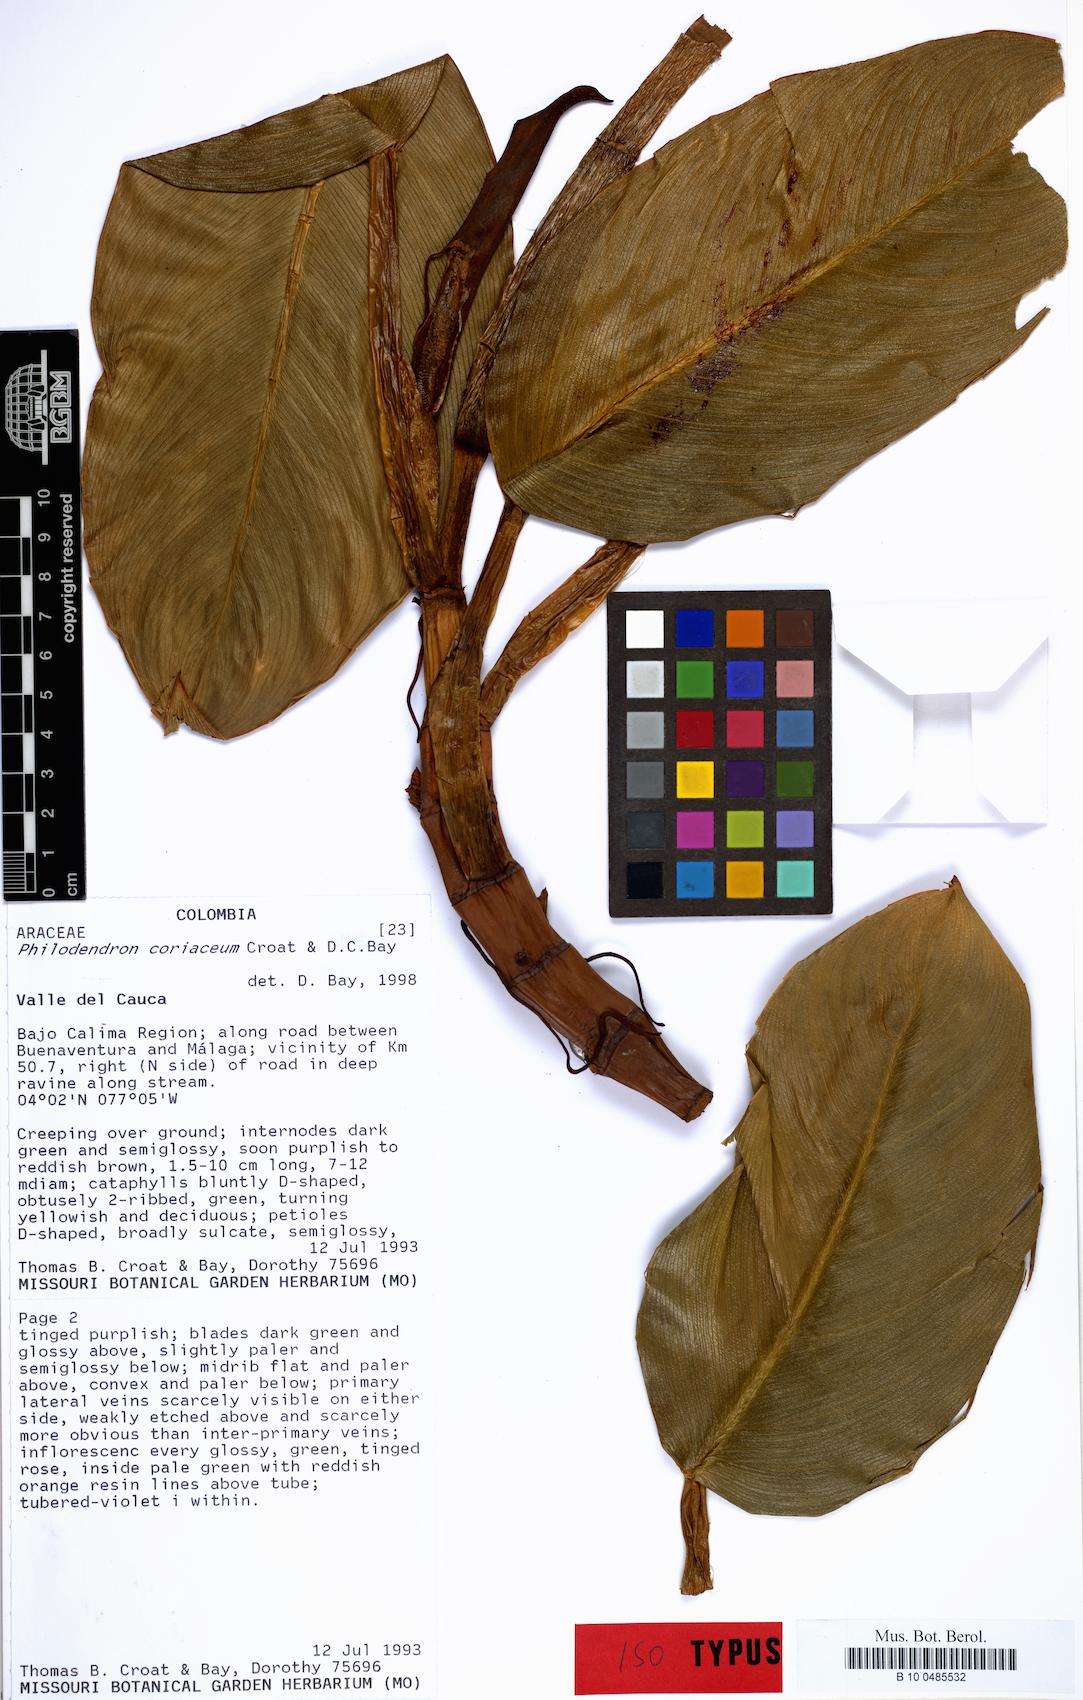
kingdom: Plantae
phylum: Tracheophyta
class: Liliopsida
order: Alismatales
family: Araceae
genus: Philodendron
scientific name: Philodendron coriaceum
